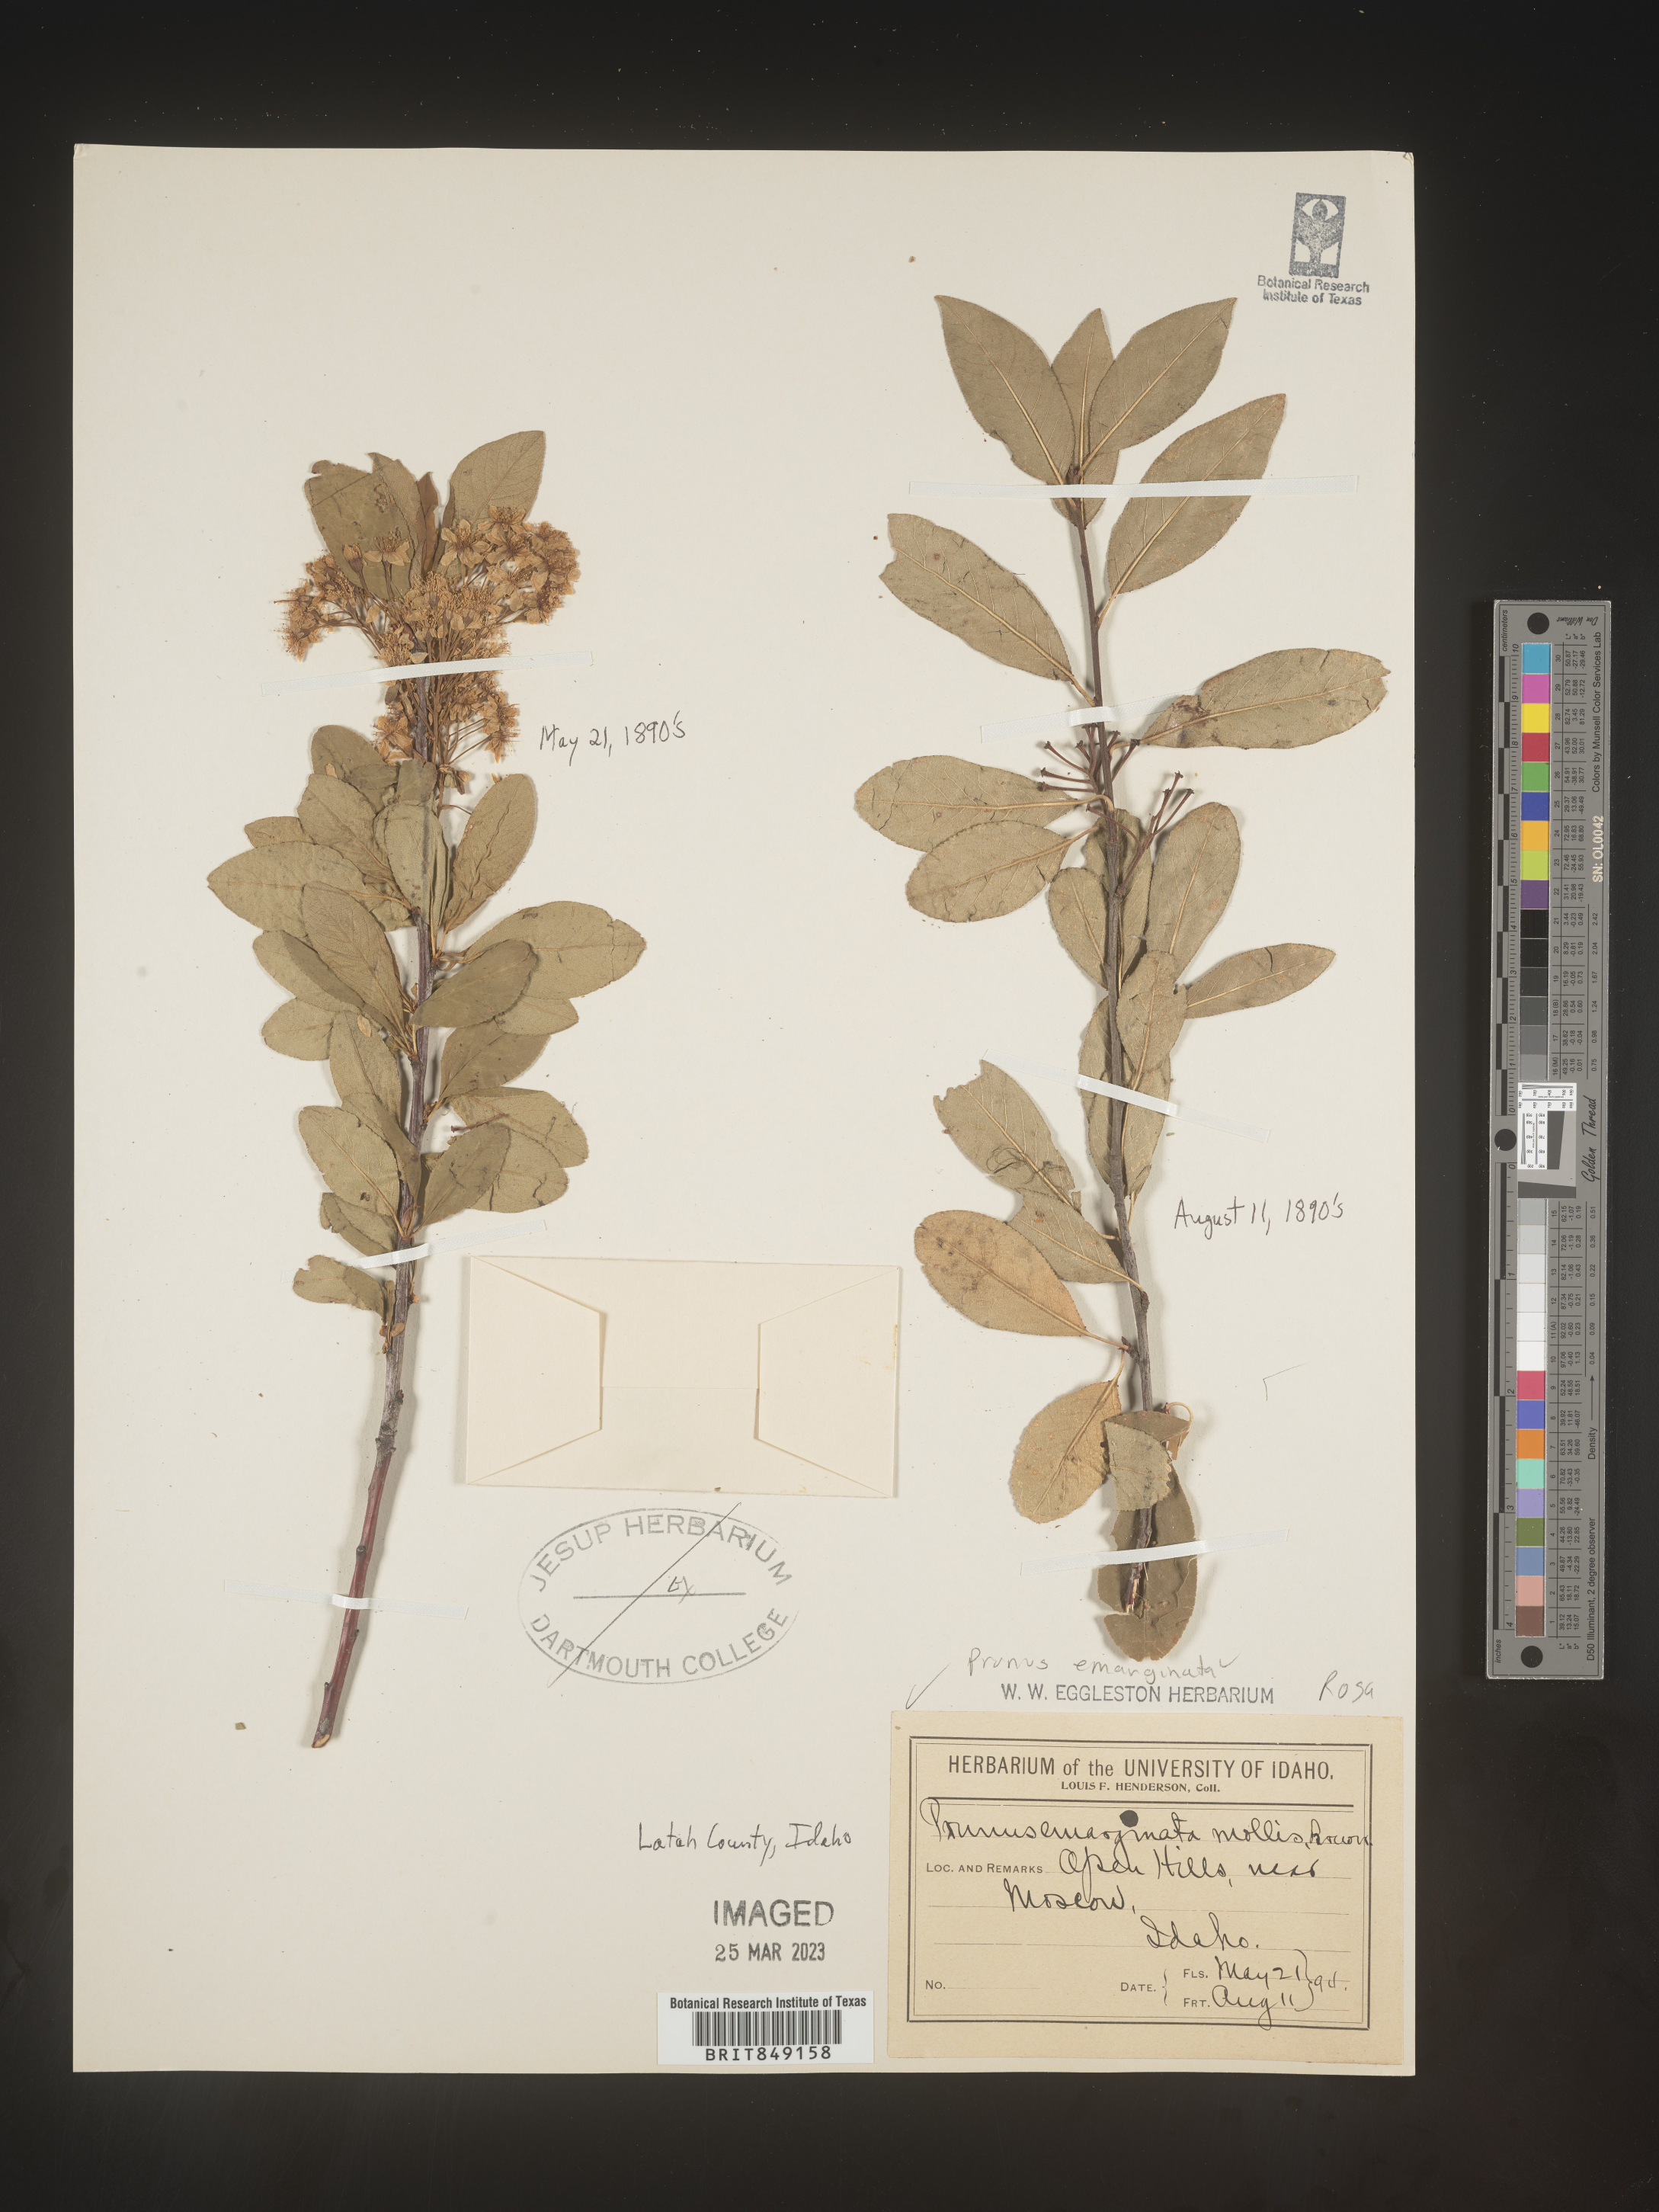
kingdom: Plantae
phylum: Tracheophyta
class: Magnoliopsida
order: Rosales
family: Rosaceae
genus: Prunus
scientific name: Prunus emarginata
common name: Bitter cherry
